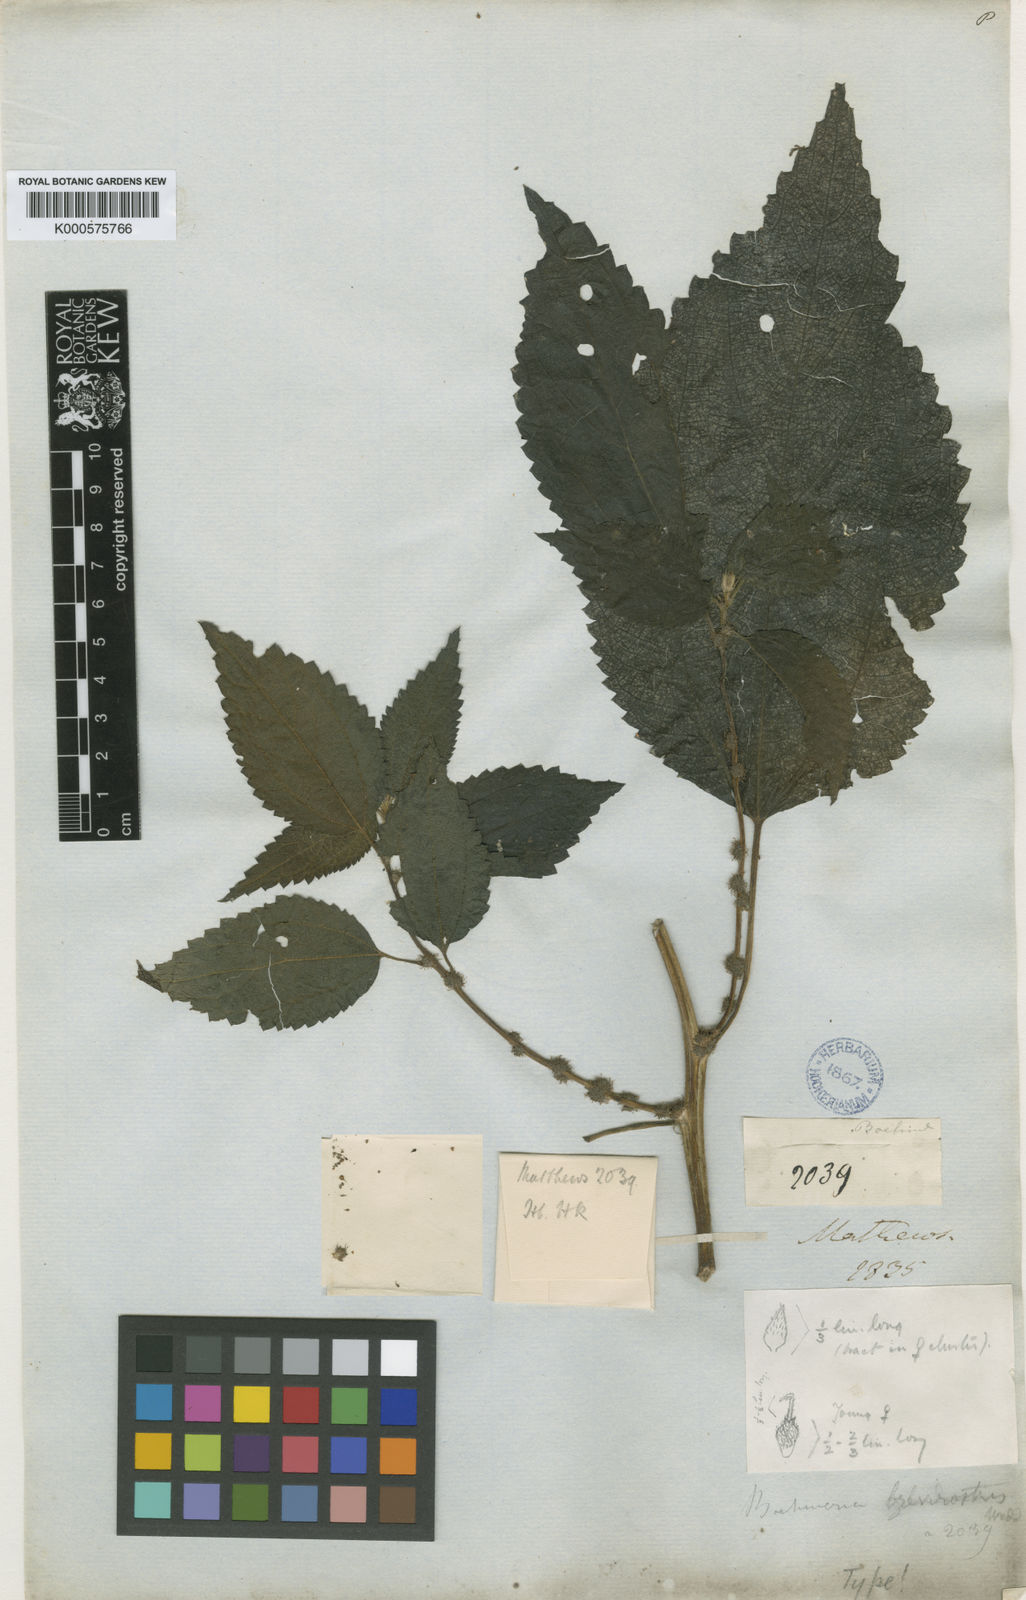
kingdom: Plantae
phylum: Tracheophyta
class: Magnoliopsida
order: Rosales
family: Urticaceae
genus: Boehmeria
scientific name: Boehmeria brevirostris
